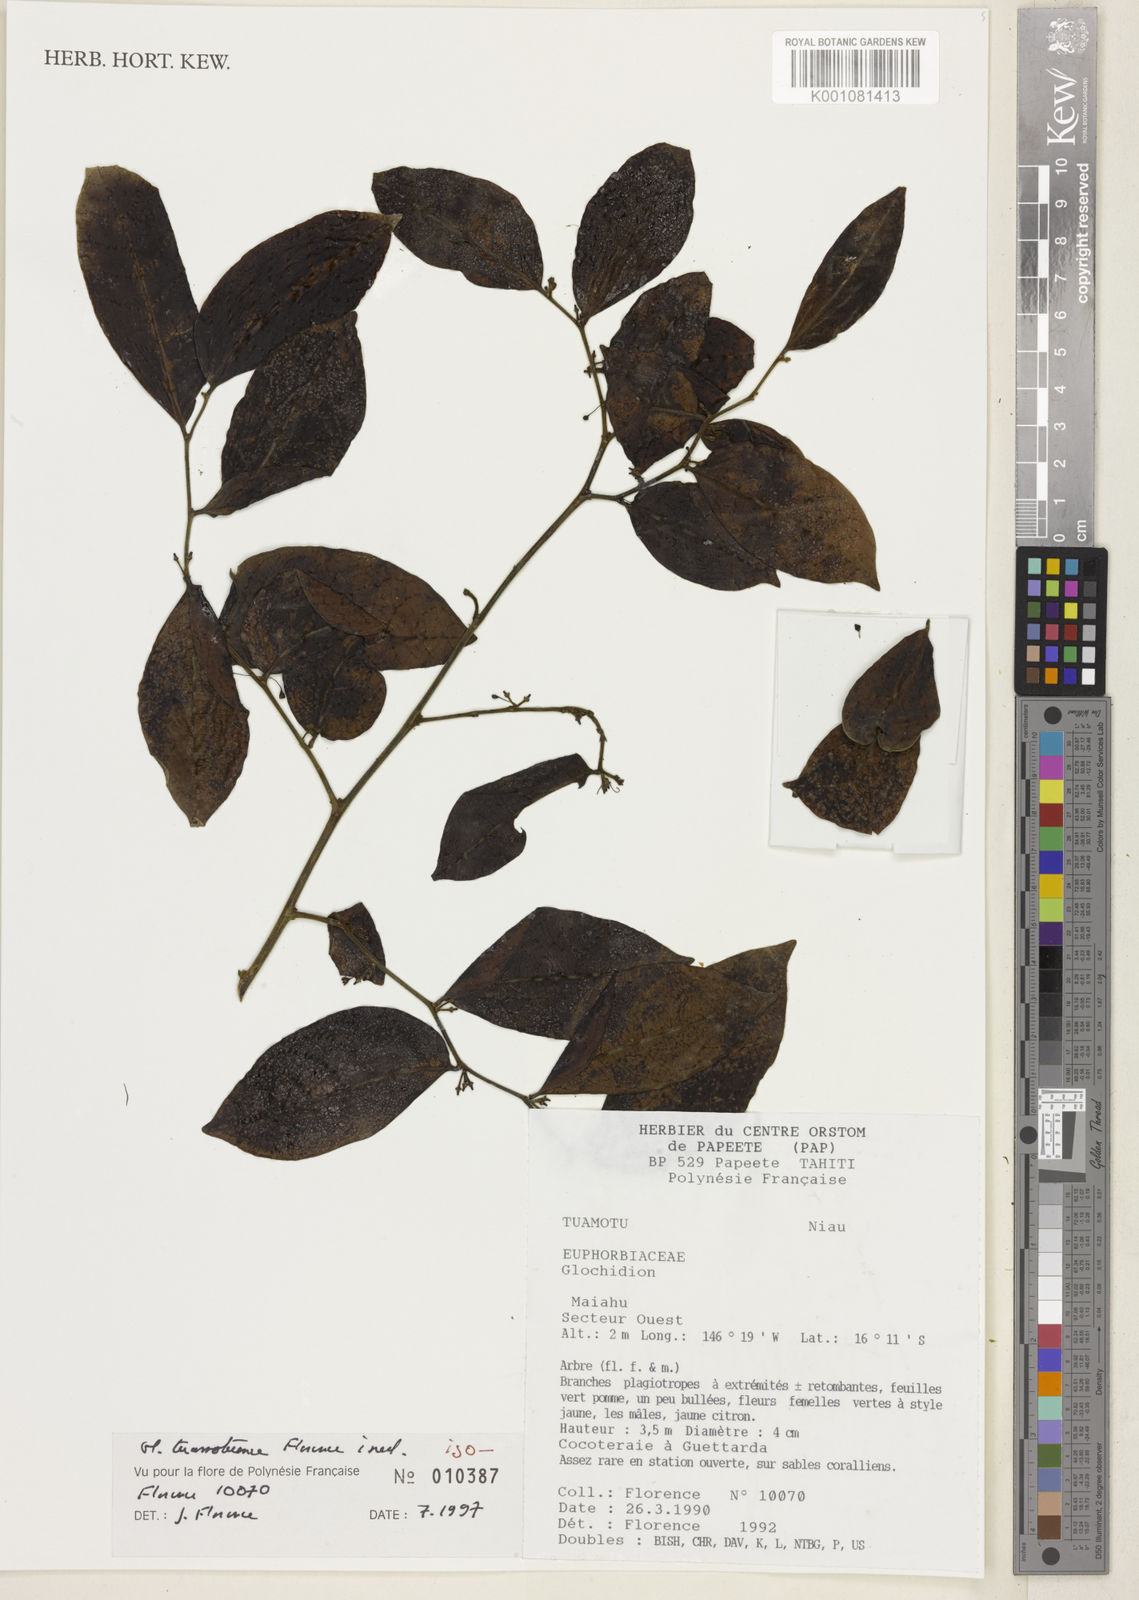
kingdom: Plantae
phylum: Tracheophyta
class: Magnoliopsida
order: Malpighiales
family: Phyllanthaceae
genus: Glochidion
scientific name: Glochidion tuamotuense
